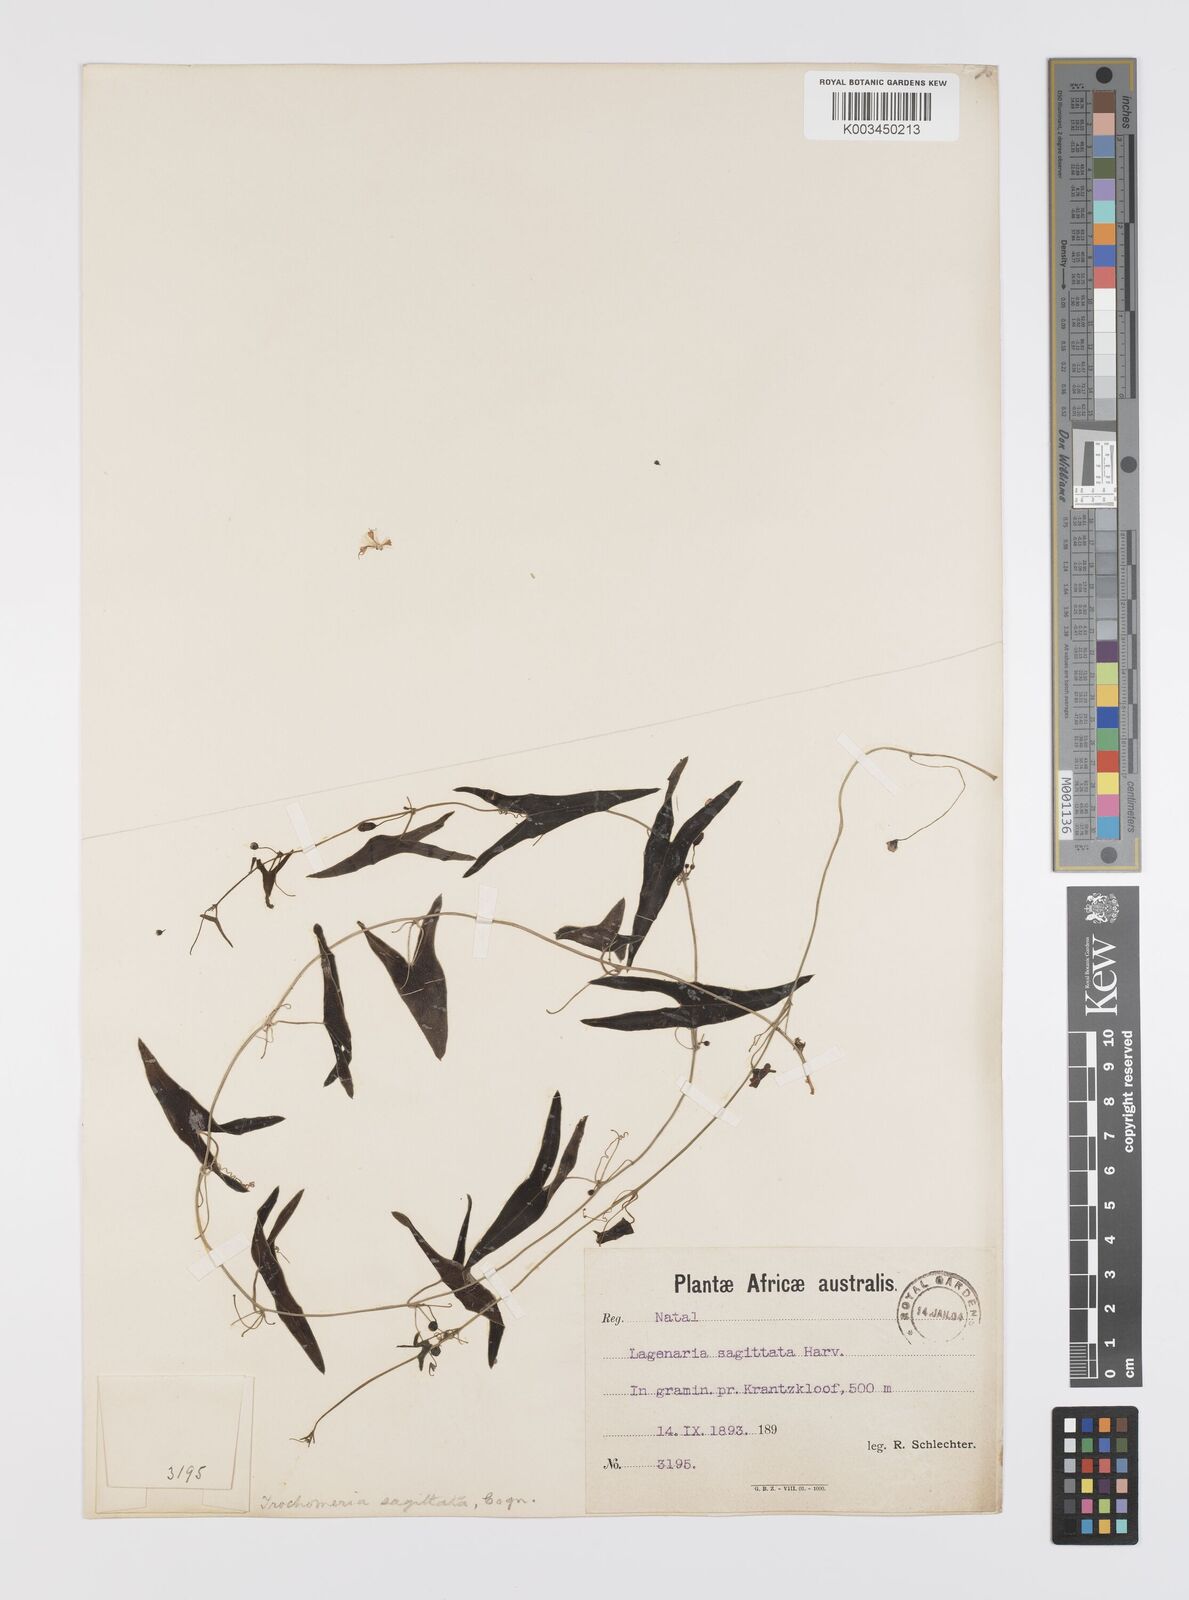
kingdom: Plantae
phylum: Tracheophyta
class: Magnoliopsida
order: Cucurbitales
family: Cucurbitaceae
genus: Trochomeria
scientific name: Trochomeria sagittata
